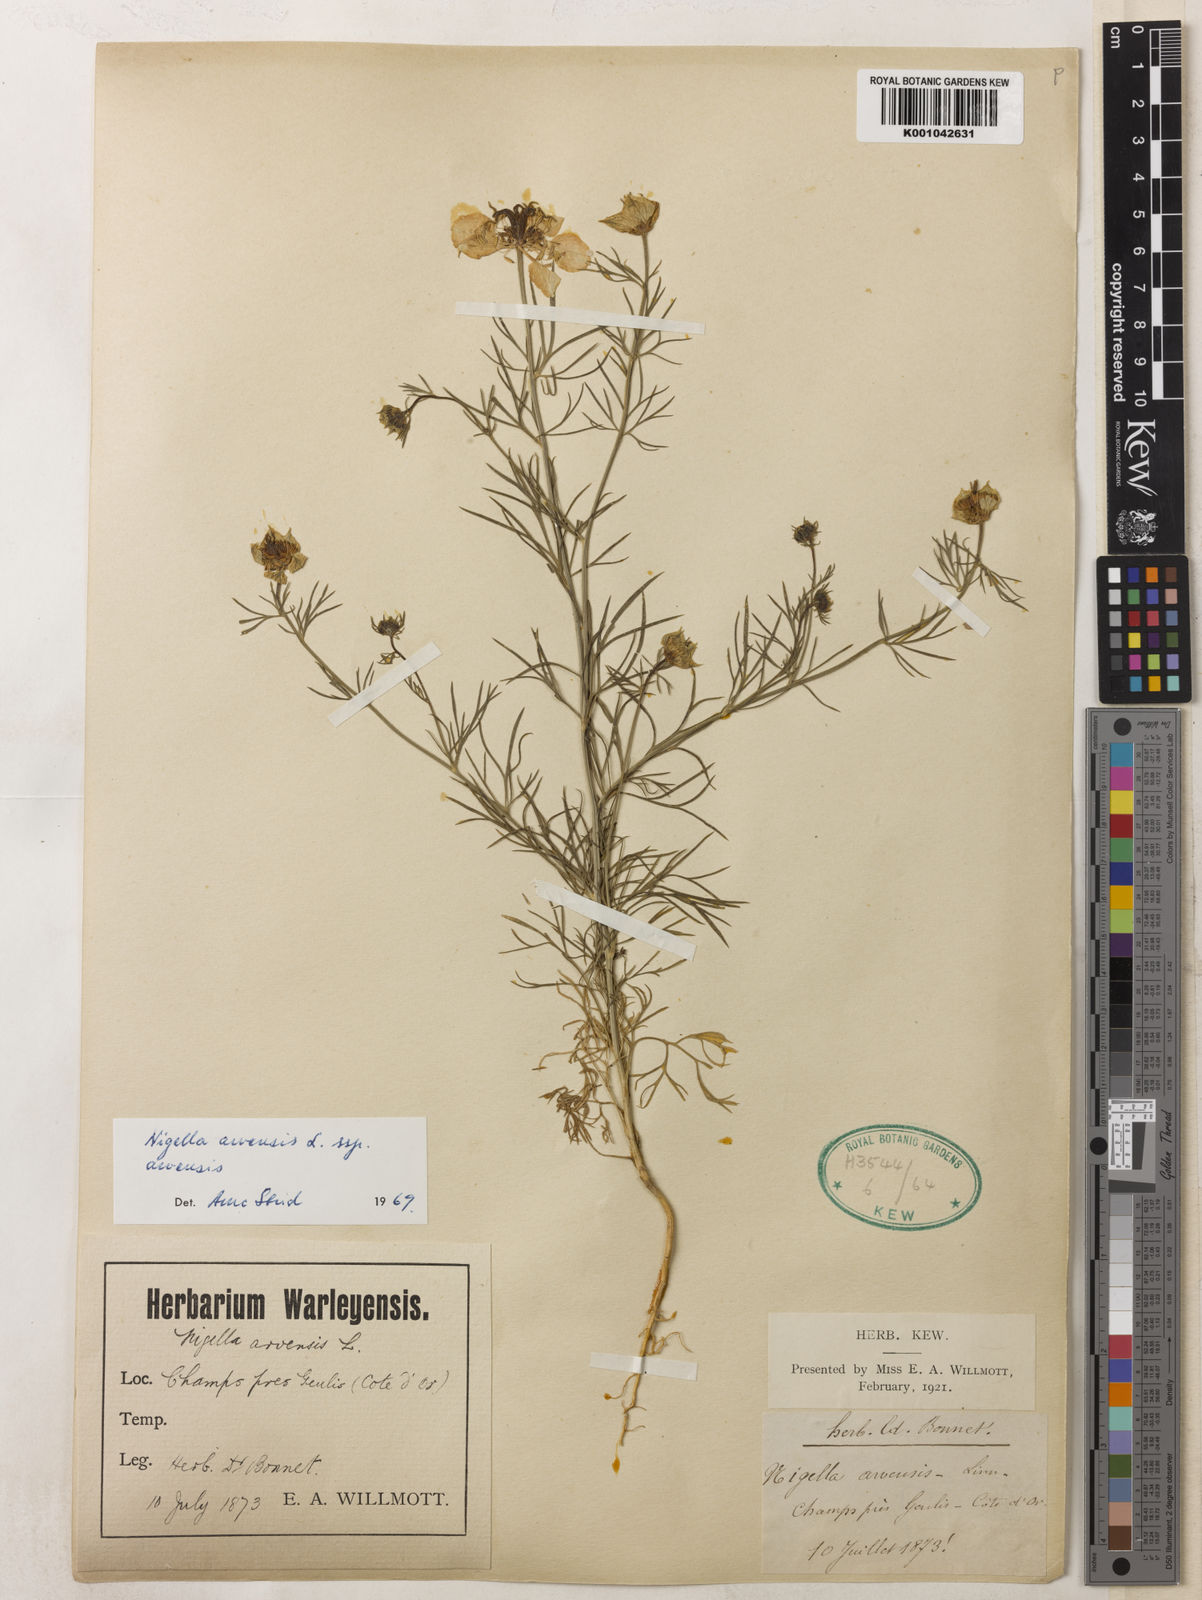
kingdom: Plantae
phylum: Tracheophyta
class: Magnoliopsida
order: Ranunculales
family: Ranunculaceae
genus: Nigella
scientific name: Nigella arvensis
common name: Wild fennel-flower
